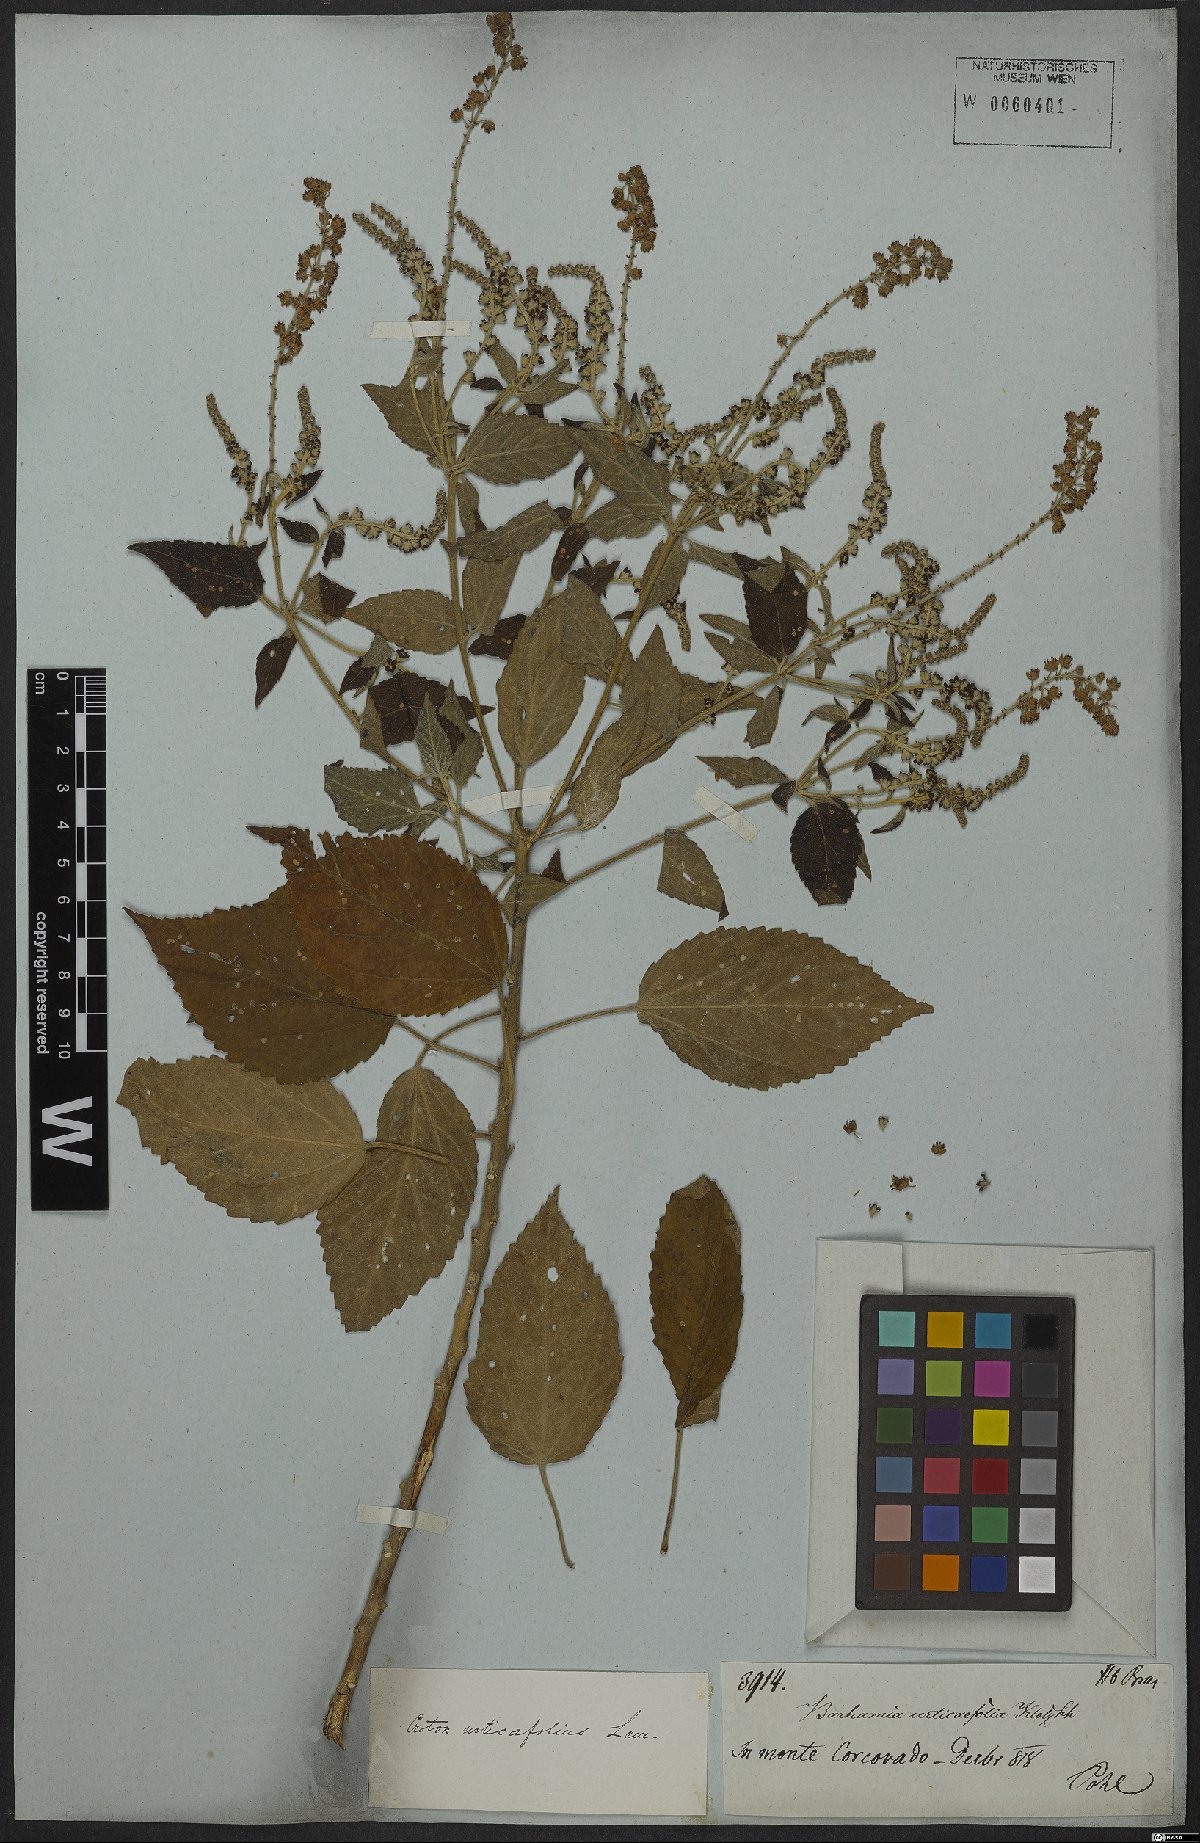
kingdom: Plantae
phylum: Tracheophyta
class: Magnoliopsida
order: Malpighiales
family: Euphorbiaceae
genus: Croton
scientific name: Croton urticifolius
